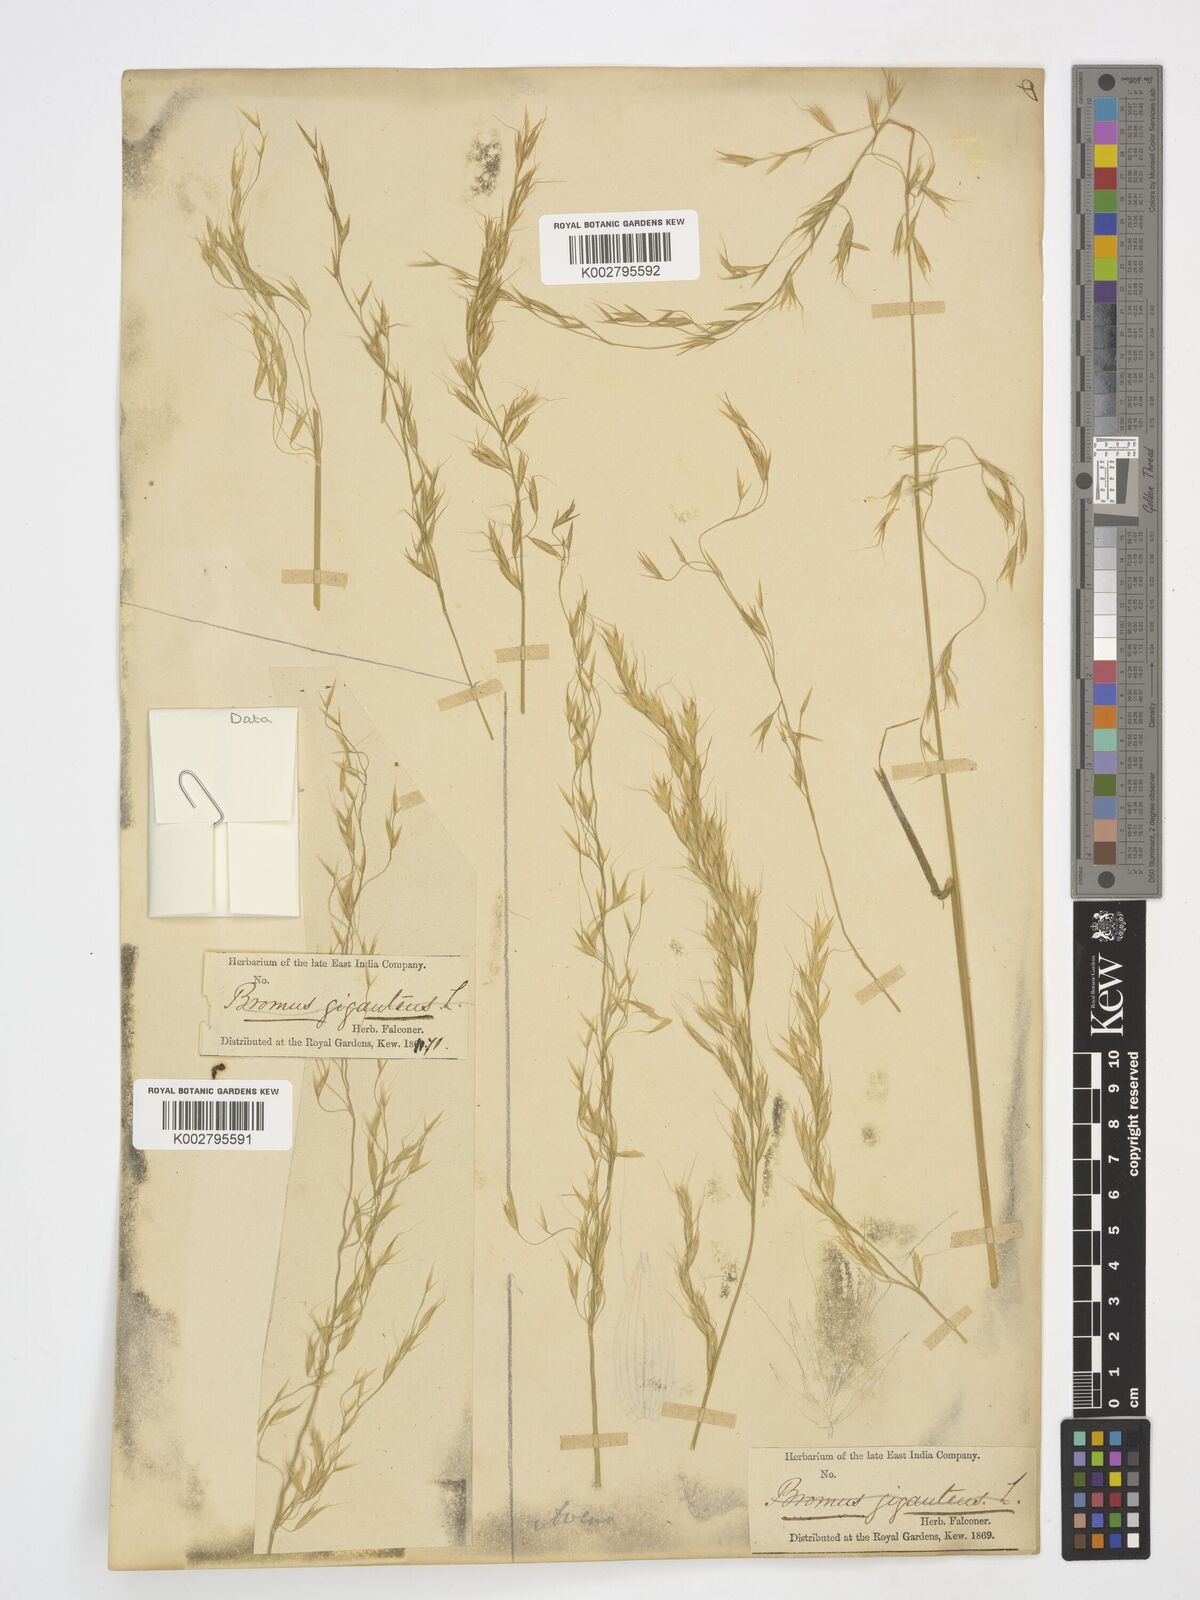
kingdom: Plantae
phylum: Tracheophyta
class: Liliopsida
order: Poales
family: Poaceae
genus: Helictotrichon
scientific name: Helictotrichon
